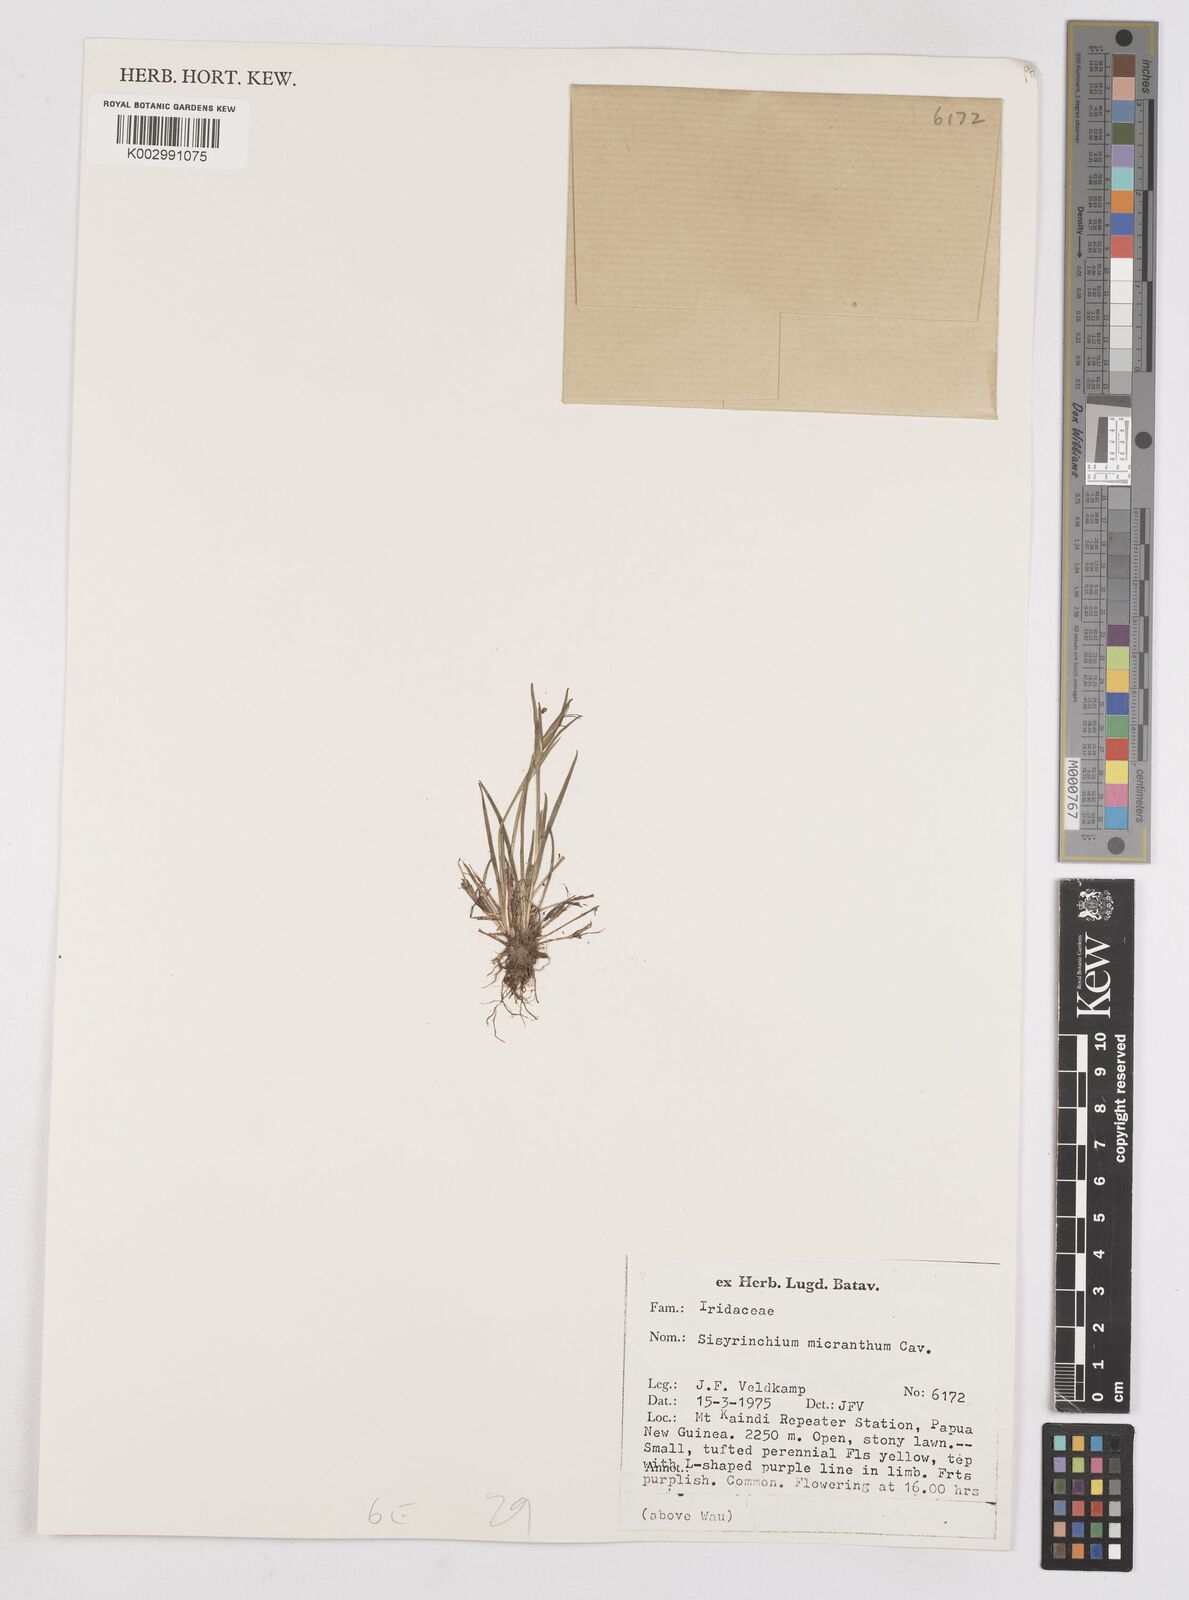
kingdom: Plantae
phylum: Tracheophyta
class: Liliopsida
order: Asparagales
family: Iridaceae
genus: Libertia
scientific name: Libertia pulchella
